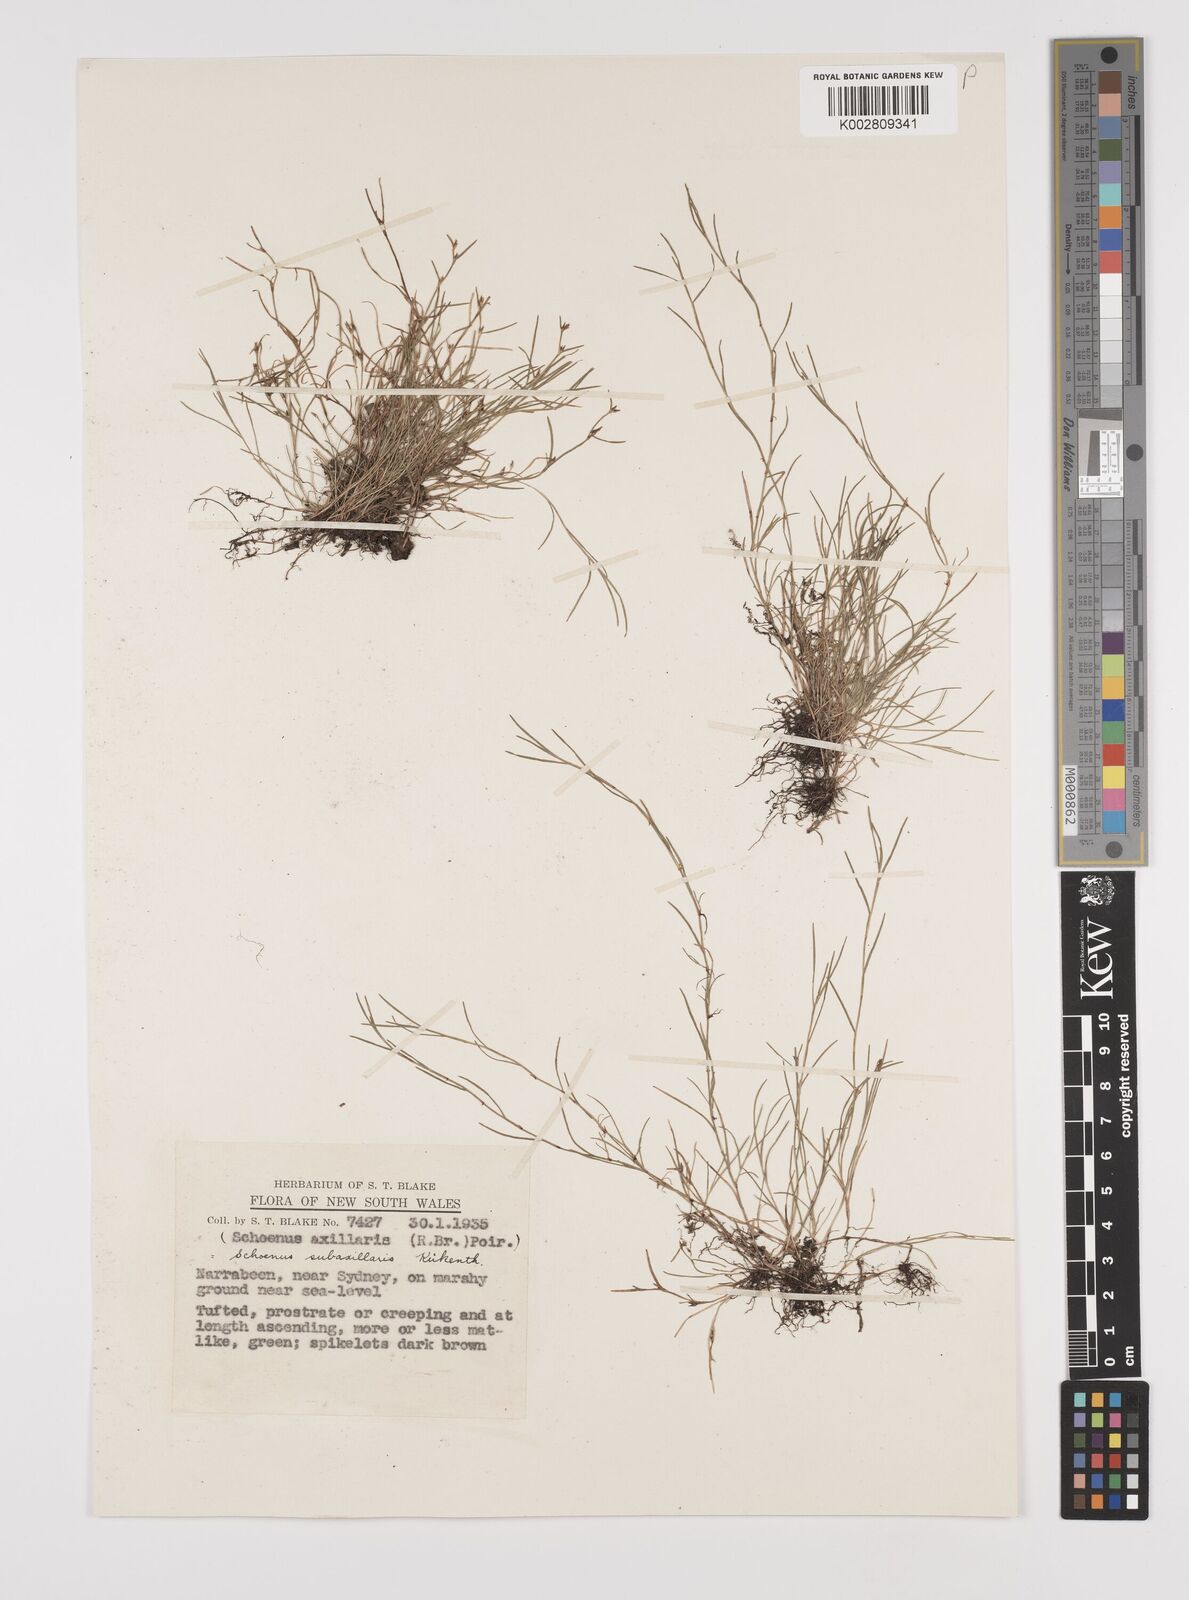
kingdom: Plantae
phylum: Tracheophyta
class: Liliopsida
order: Poales
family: Cyperaceae
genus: Schoenus
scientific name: Schoenus maschalinus
